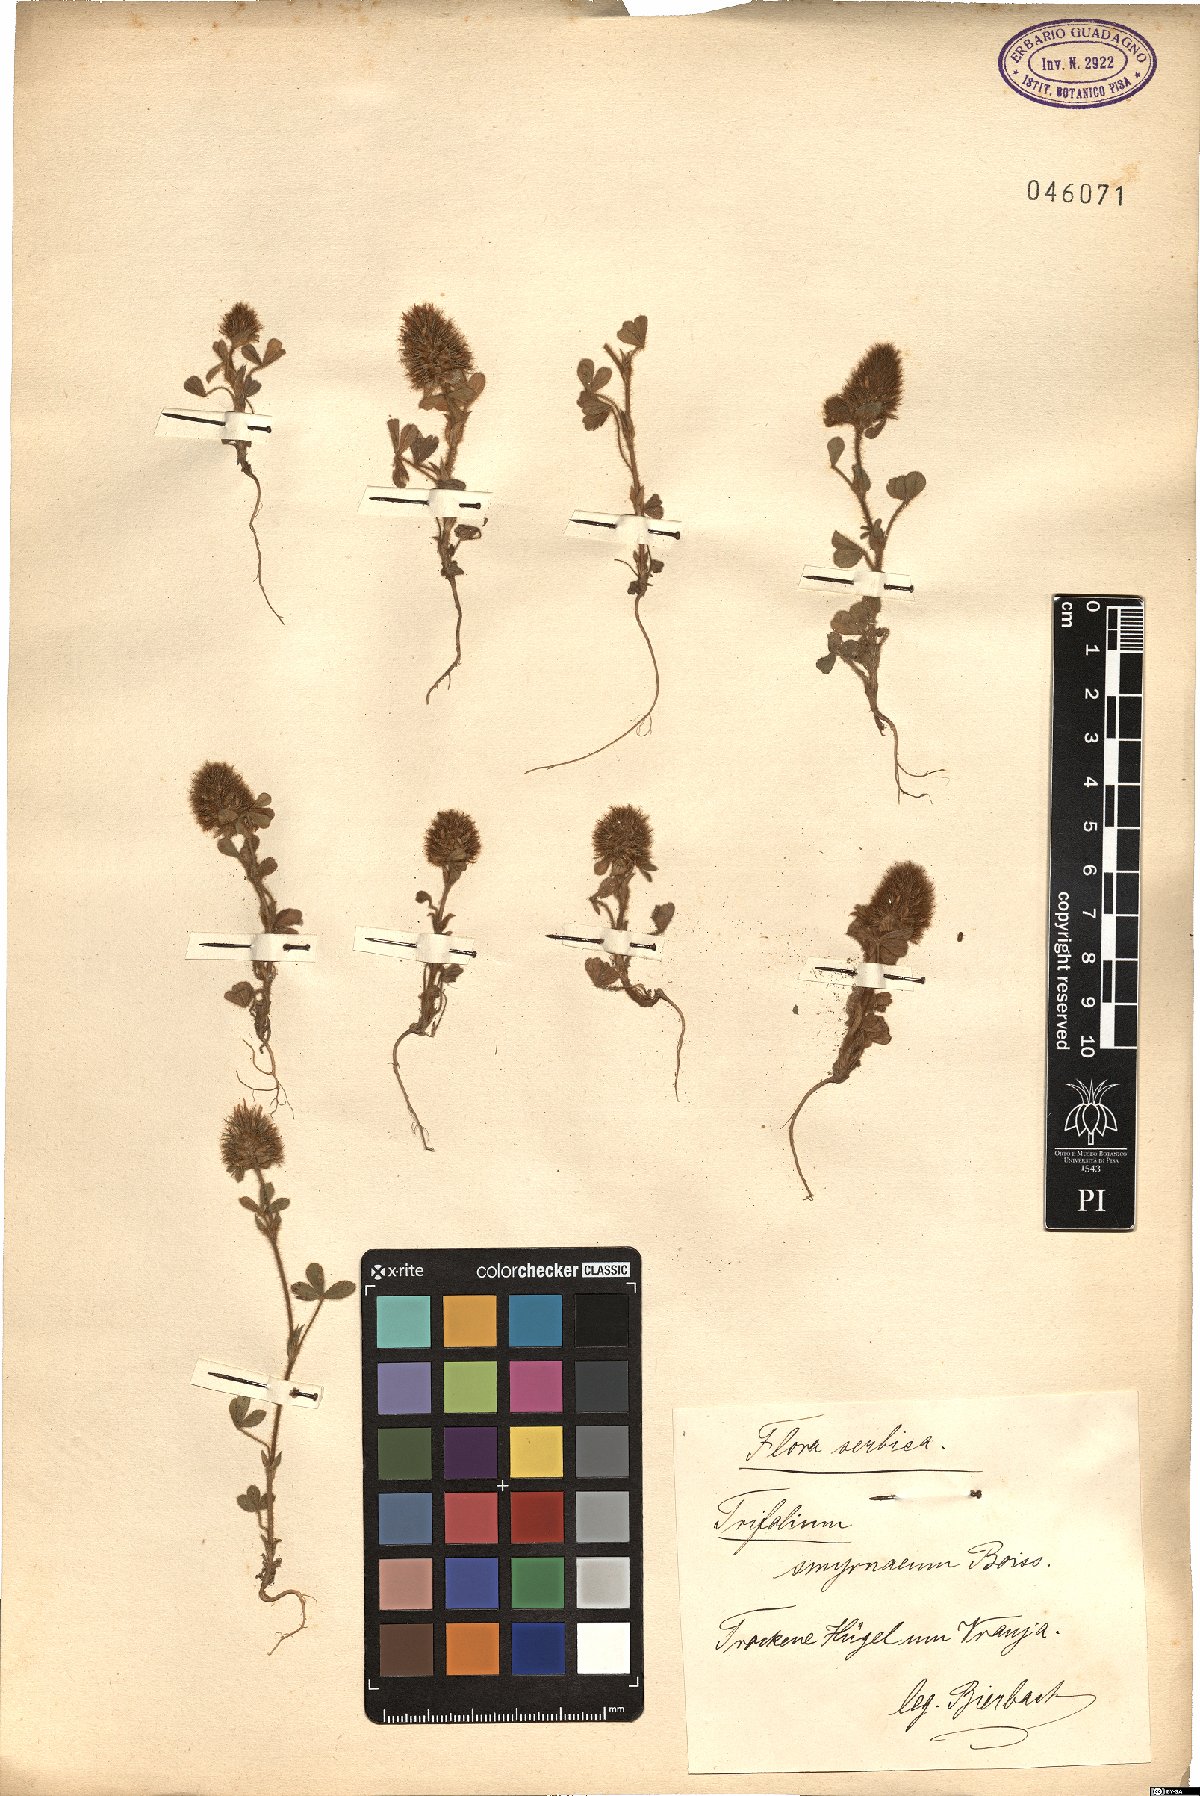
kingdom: Plantae
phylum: Tracheophyta
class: Magnoliopsida
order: Fabales
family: Fabaceae
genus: Trifolium
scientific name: Trifolium sylvaticum
